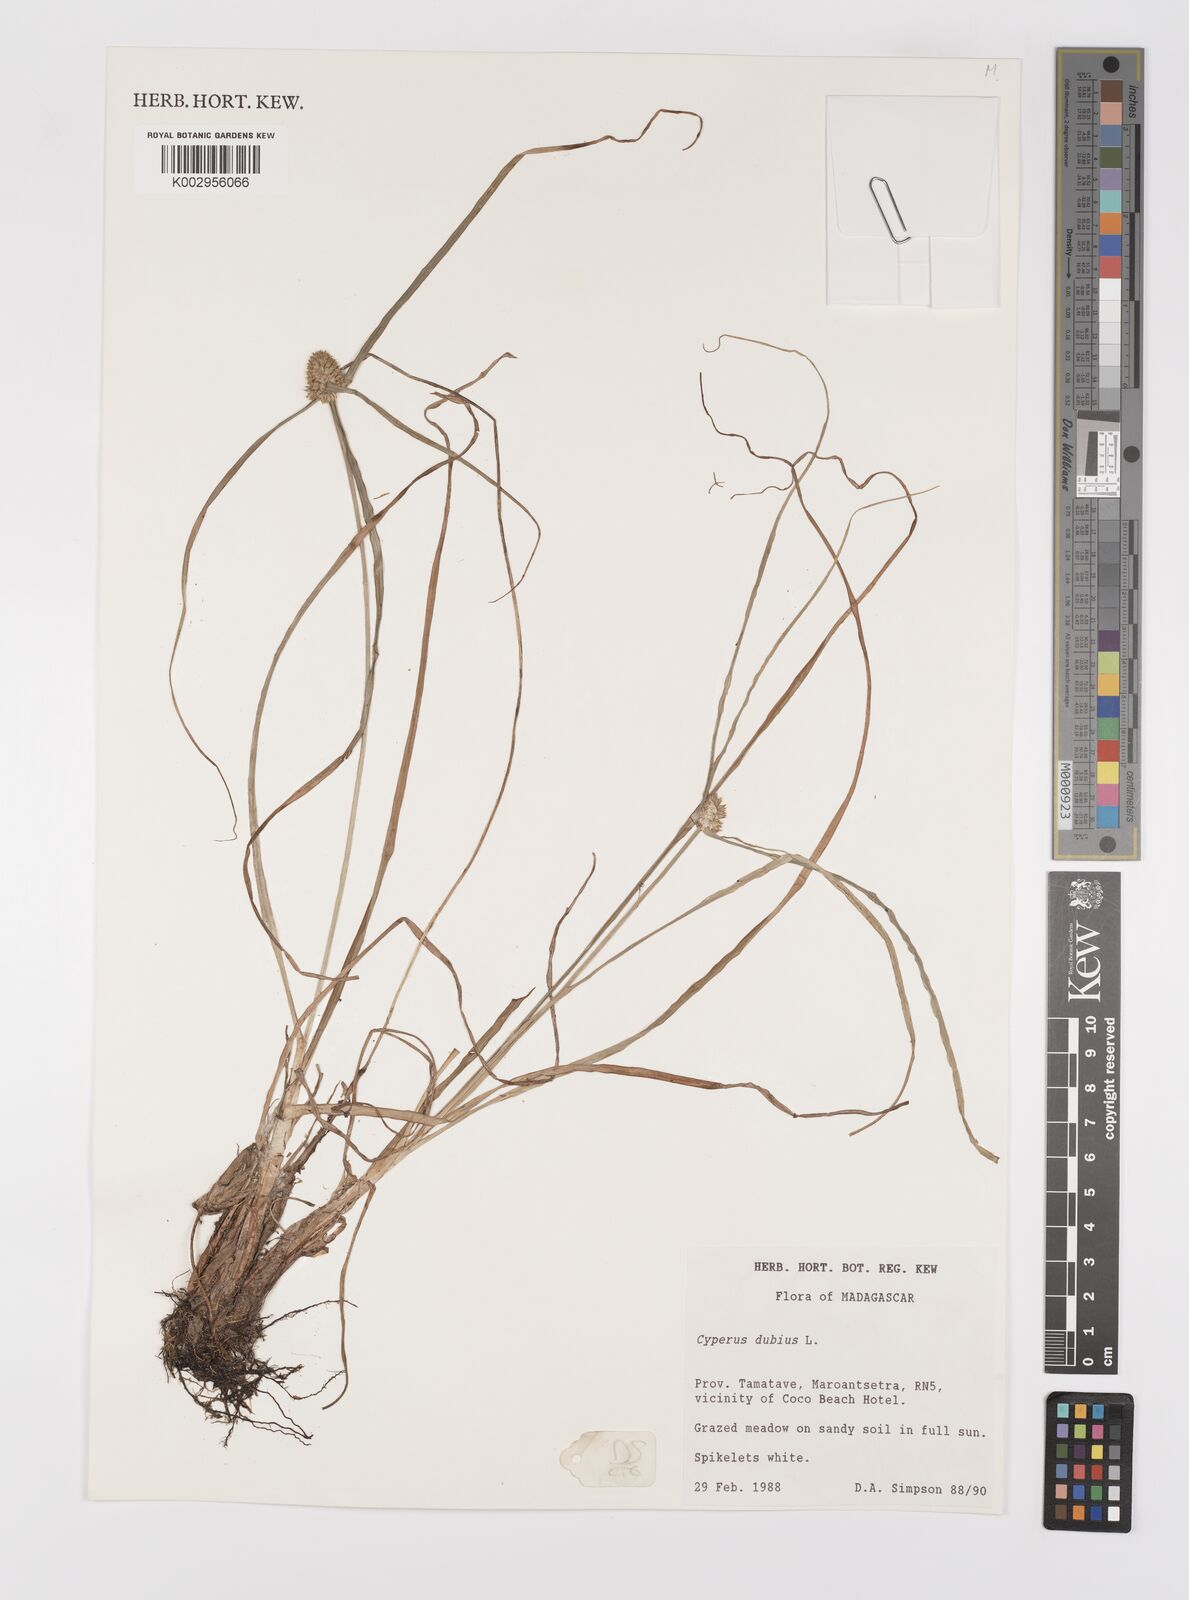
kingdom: Plantae
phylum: Tracheophyta
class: Liliopsida
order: Poales
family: Cyperaceae
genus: Cyperus
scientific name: Cyperus dubius
